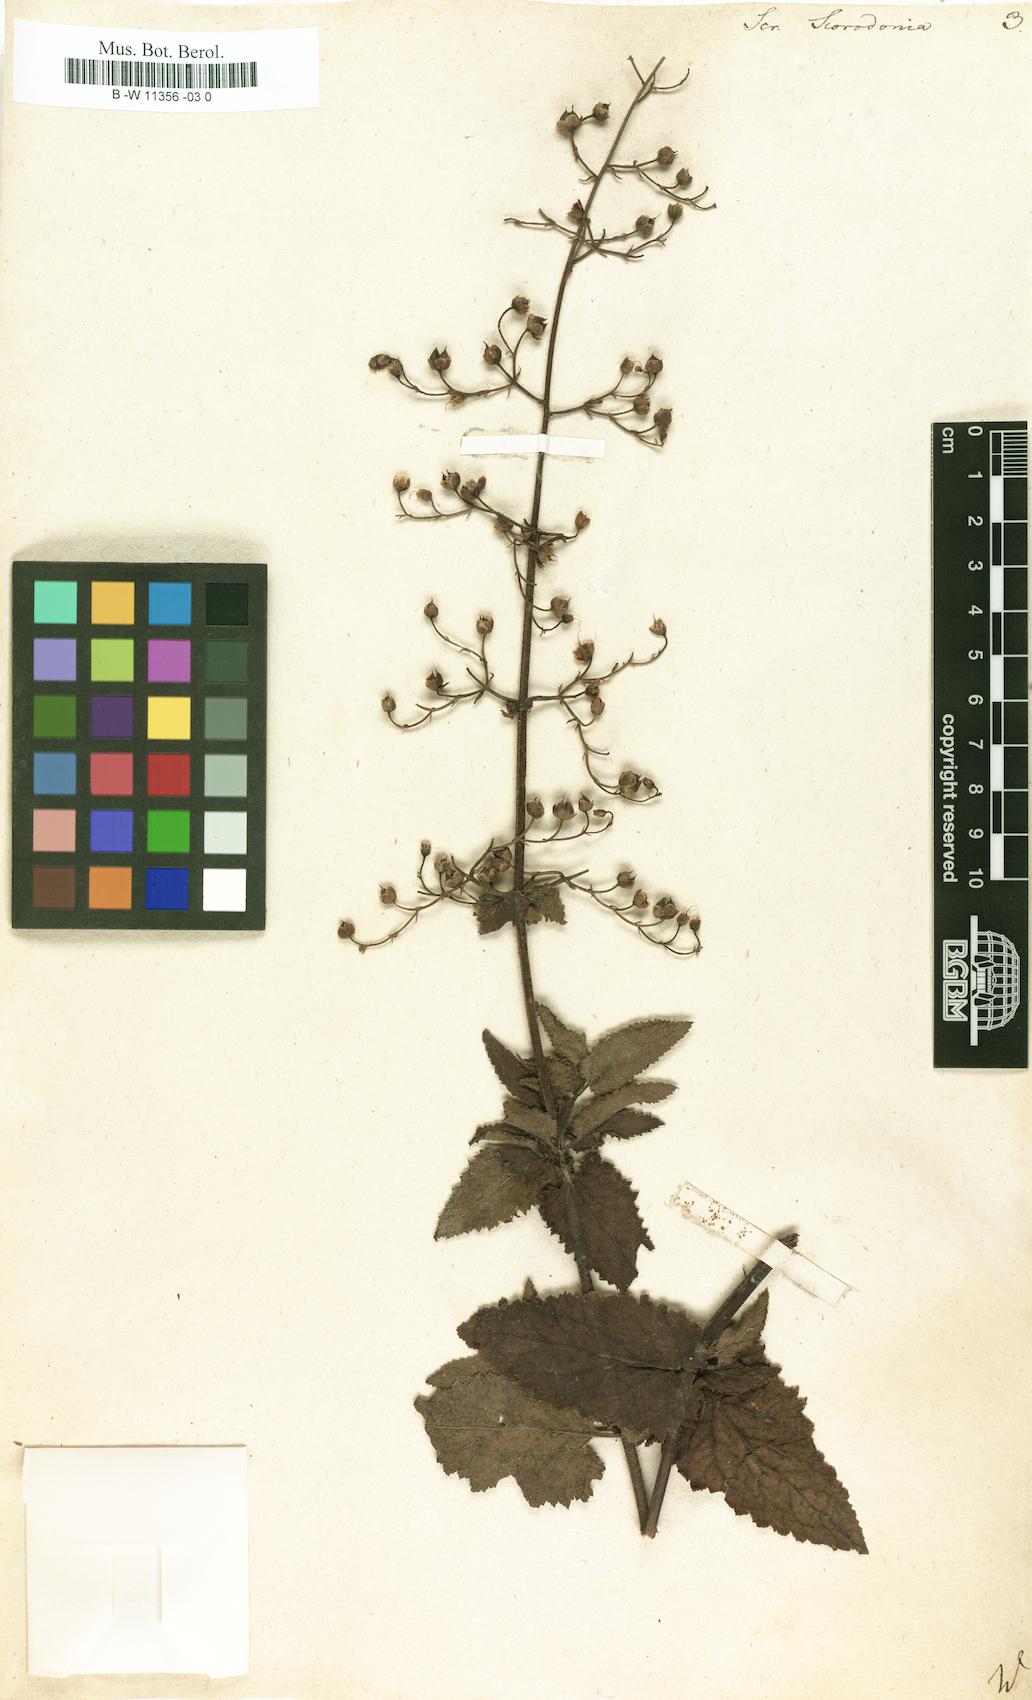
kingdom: Plantae
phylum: Tracheophyta
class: Magnoliopsida
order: Lamiales
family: Scrophulariaceae
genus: Scrophularia
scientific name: Scrophularia scorodonia
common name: Balm-leaved figwort
